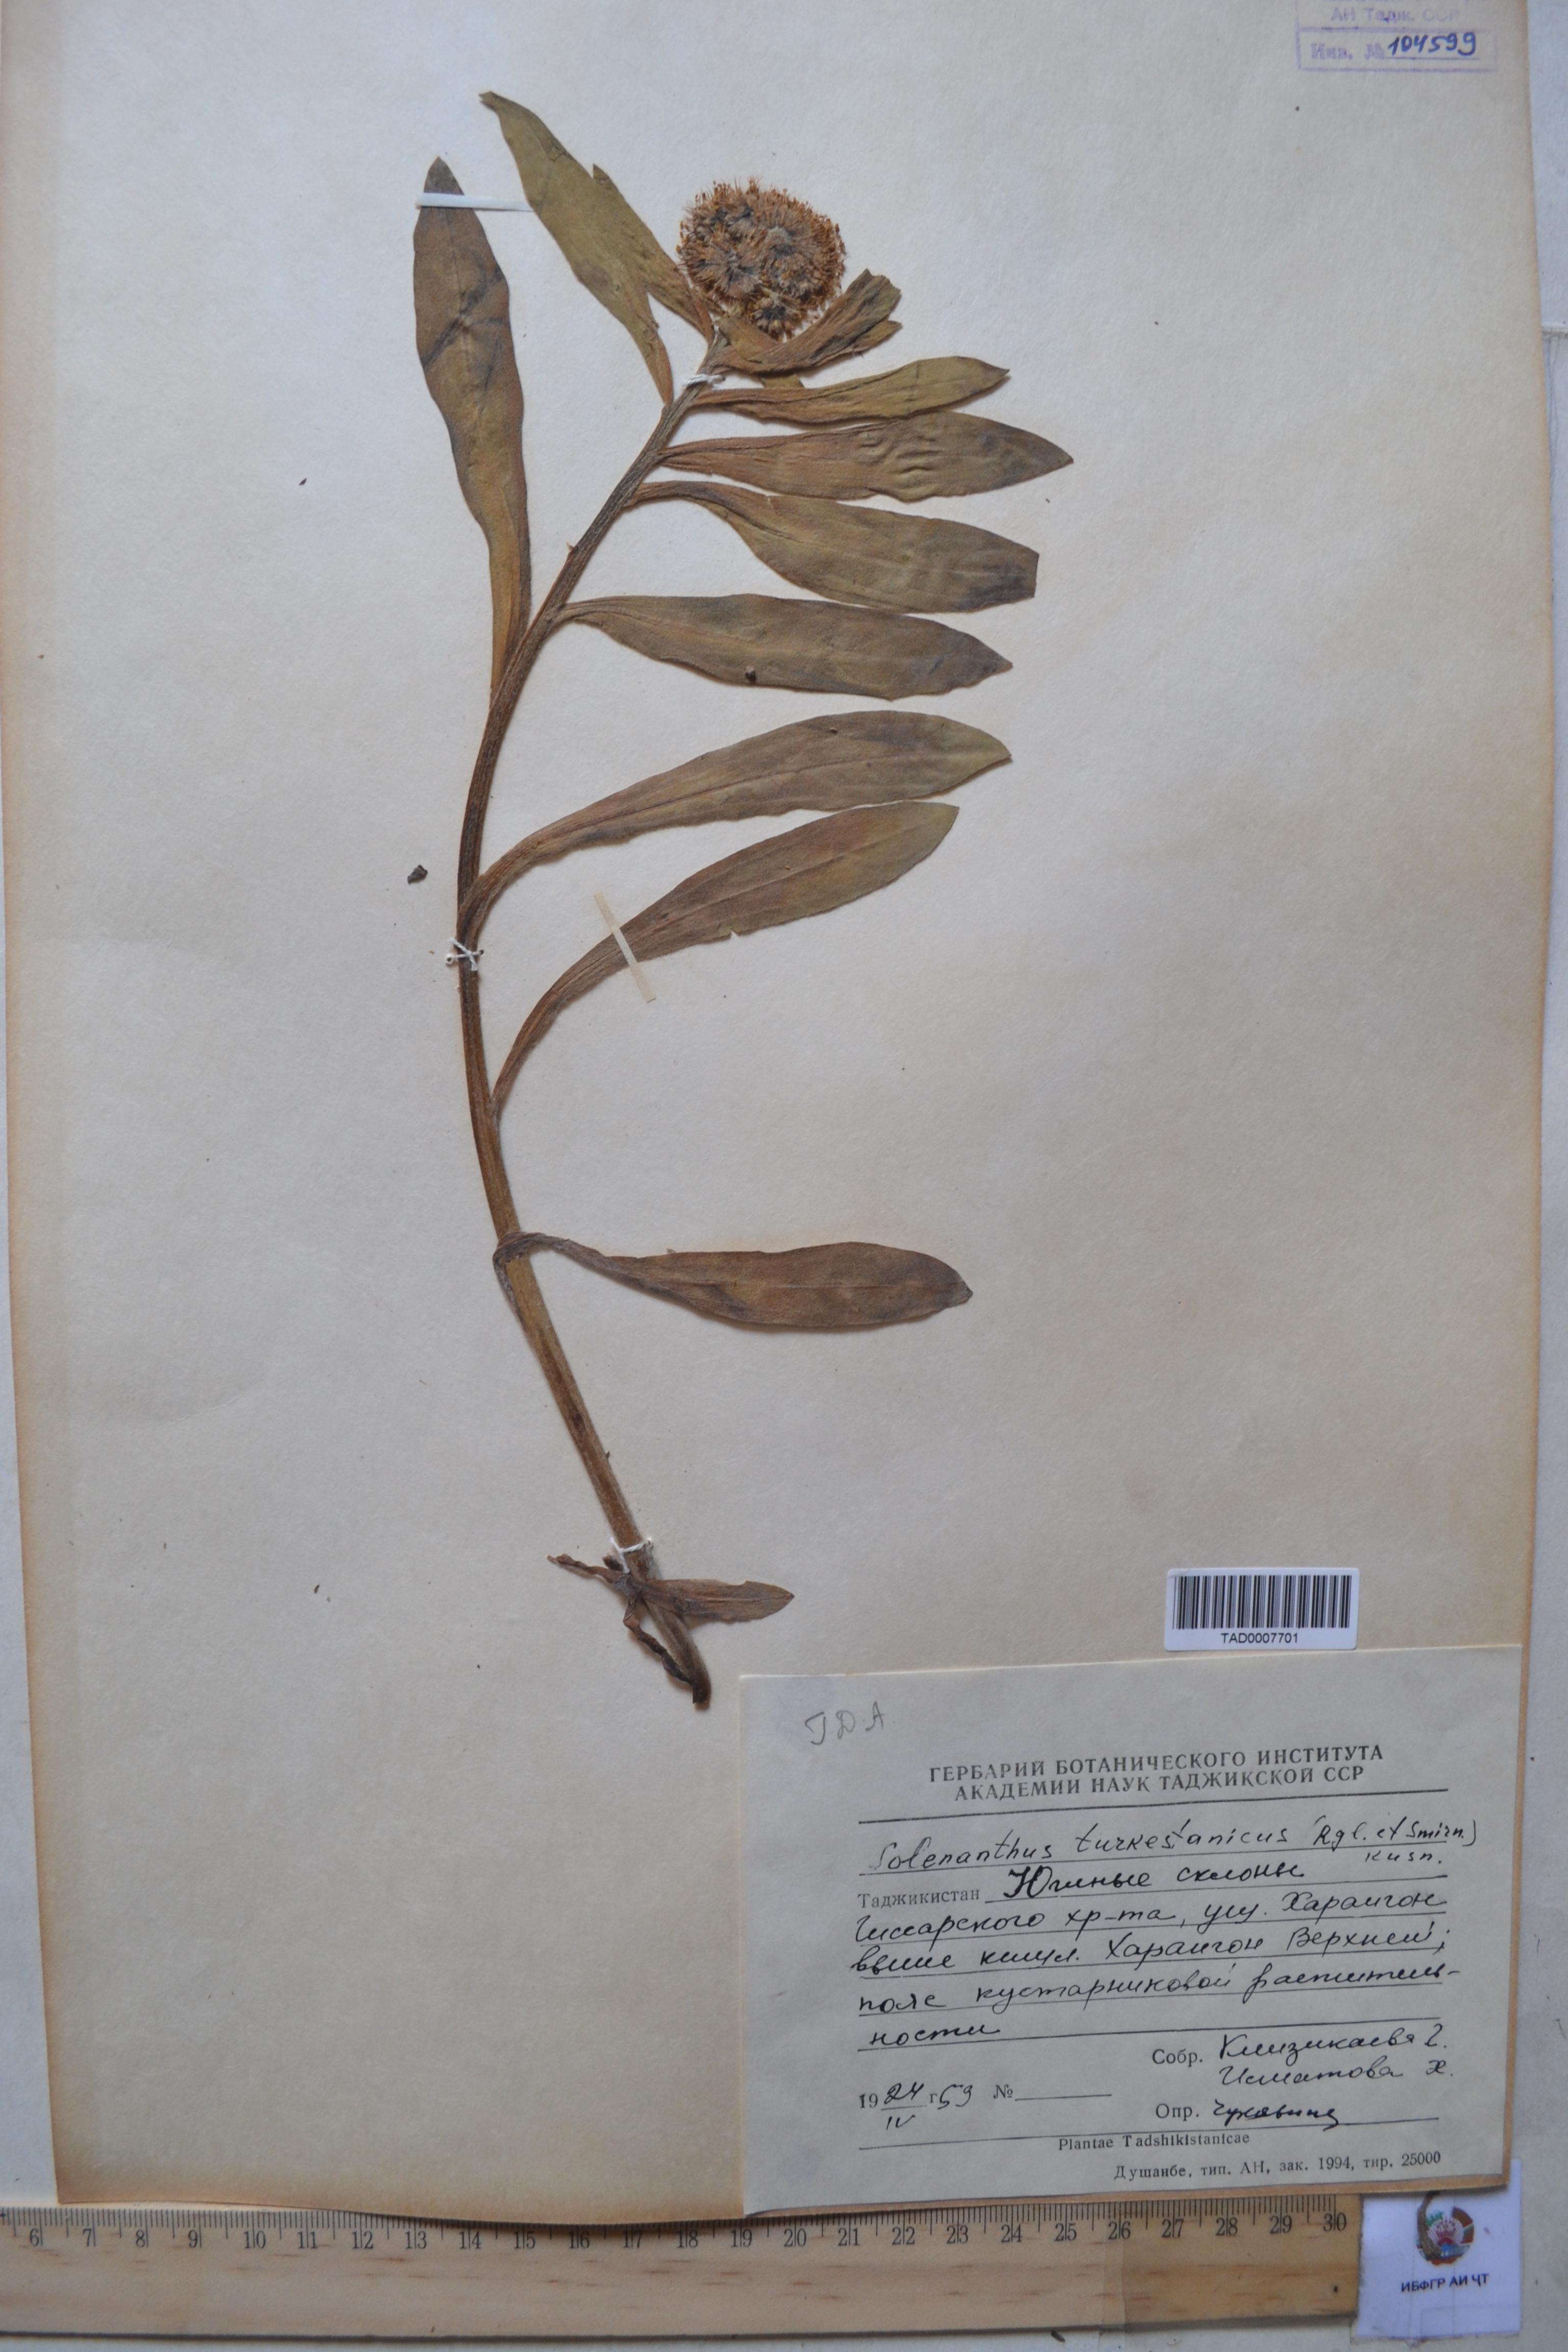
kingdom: Plantae
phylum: Tracheophyta
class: Magnoliopsida
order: Boraginales
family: Boraginaceae
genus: Solenanthus
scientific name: Solenanthus turkestanicus
